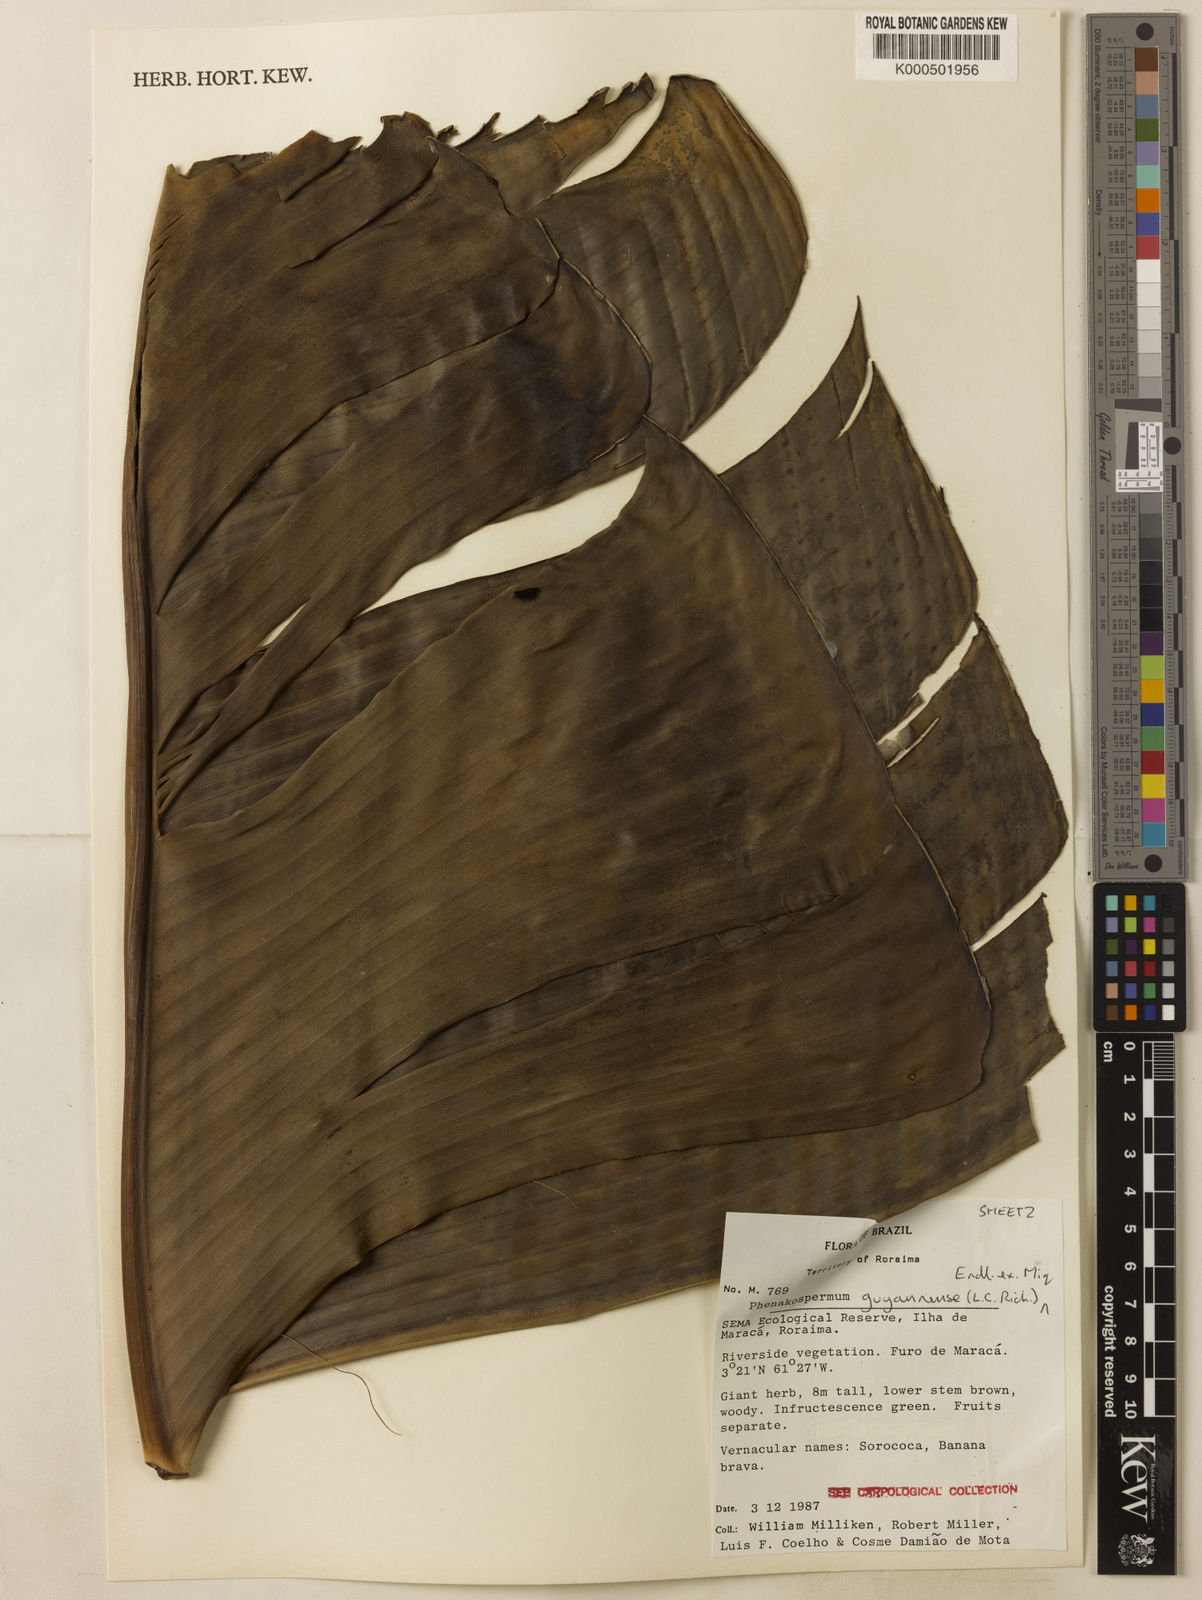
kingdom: Plantae
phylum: Tracheophyta
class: Liliopsida
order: Zingiberales
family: Strelitziaceae
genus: Phenakospermum
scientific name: Phenakospermum guyannense
